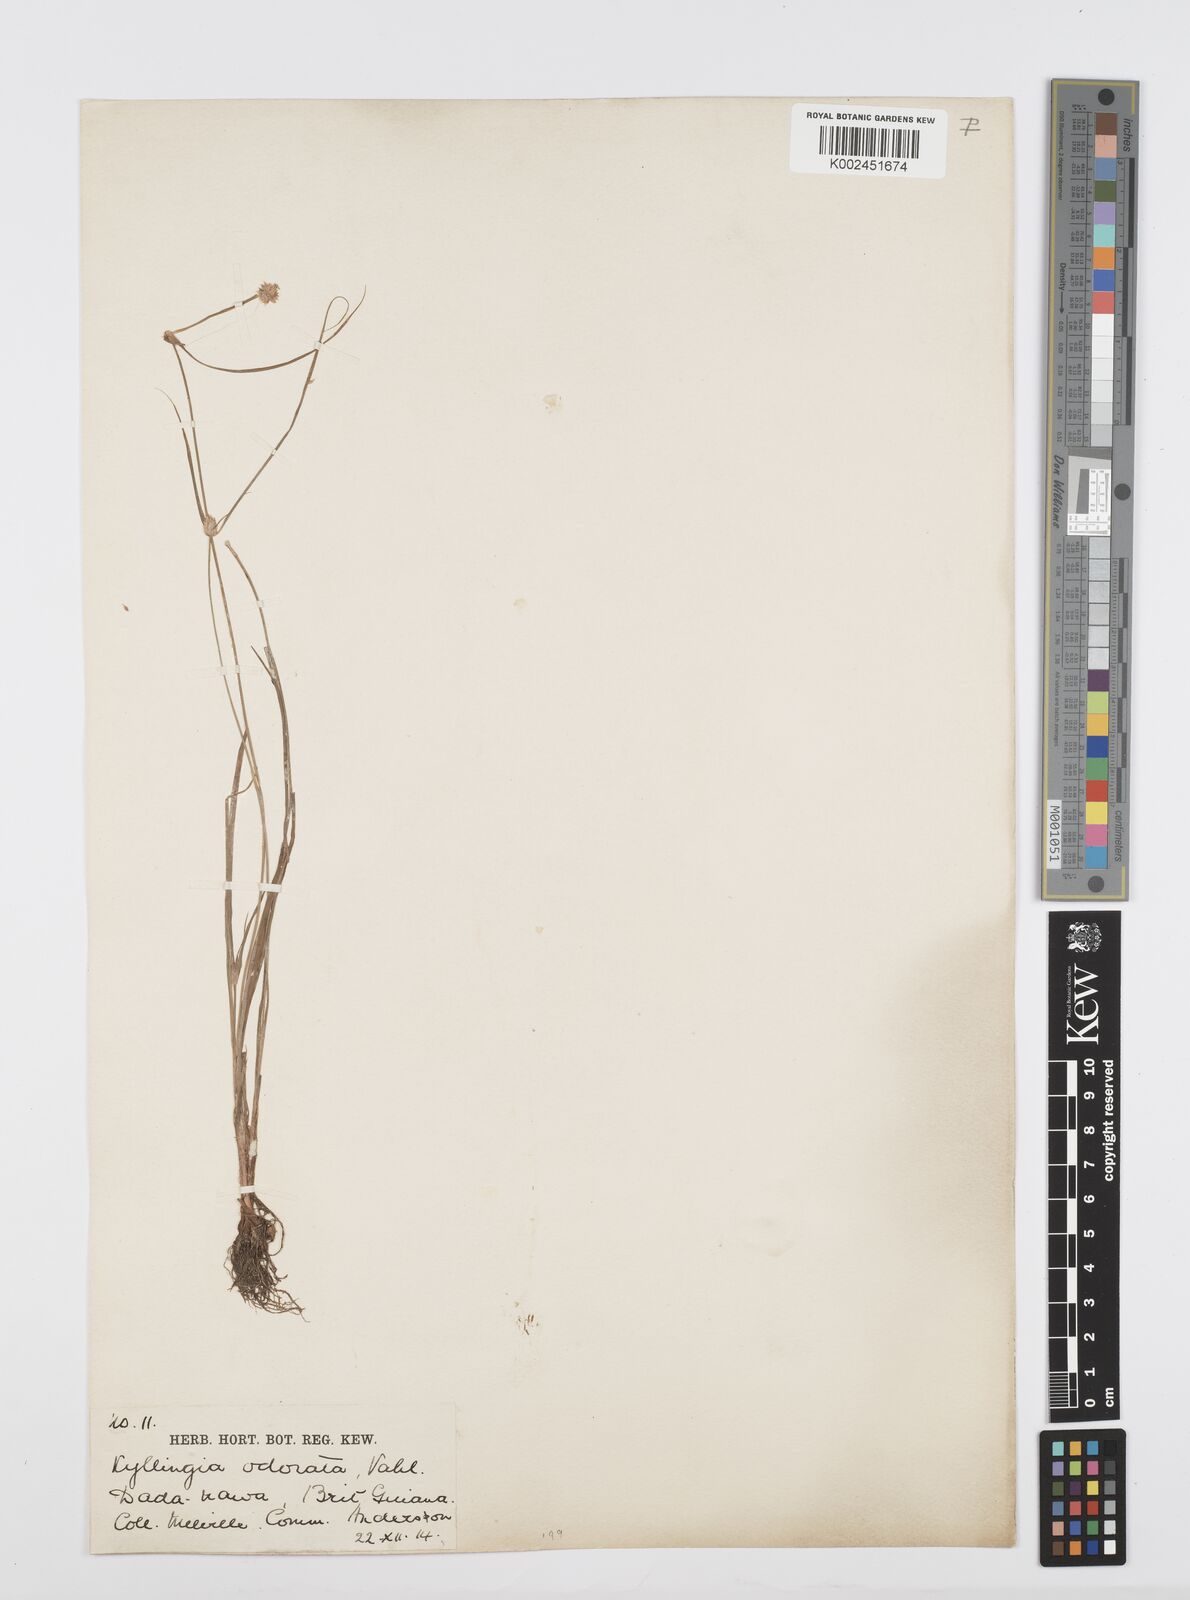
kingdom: Plantae
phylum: Tracheophyta
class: Liliopsida
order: Poales
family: Cyperaceae
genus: Cyperus
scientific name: Cyperus
